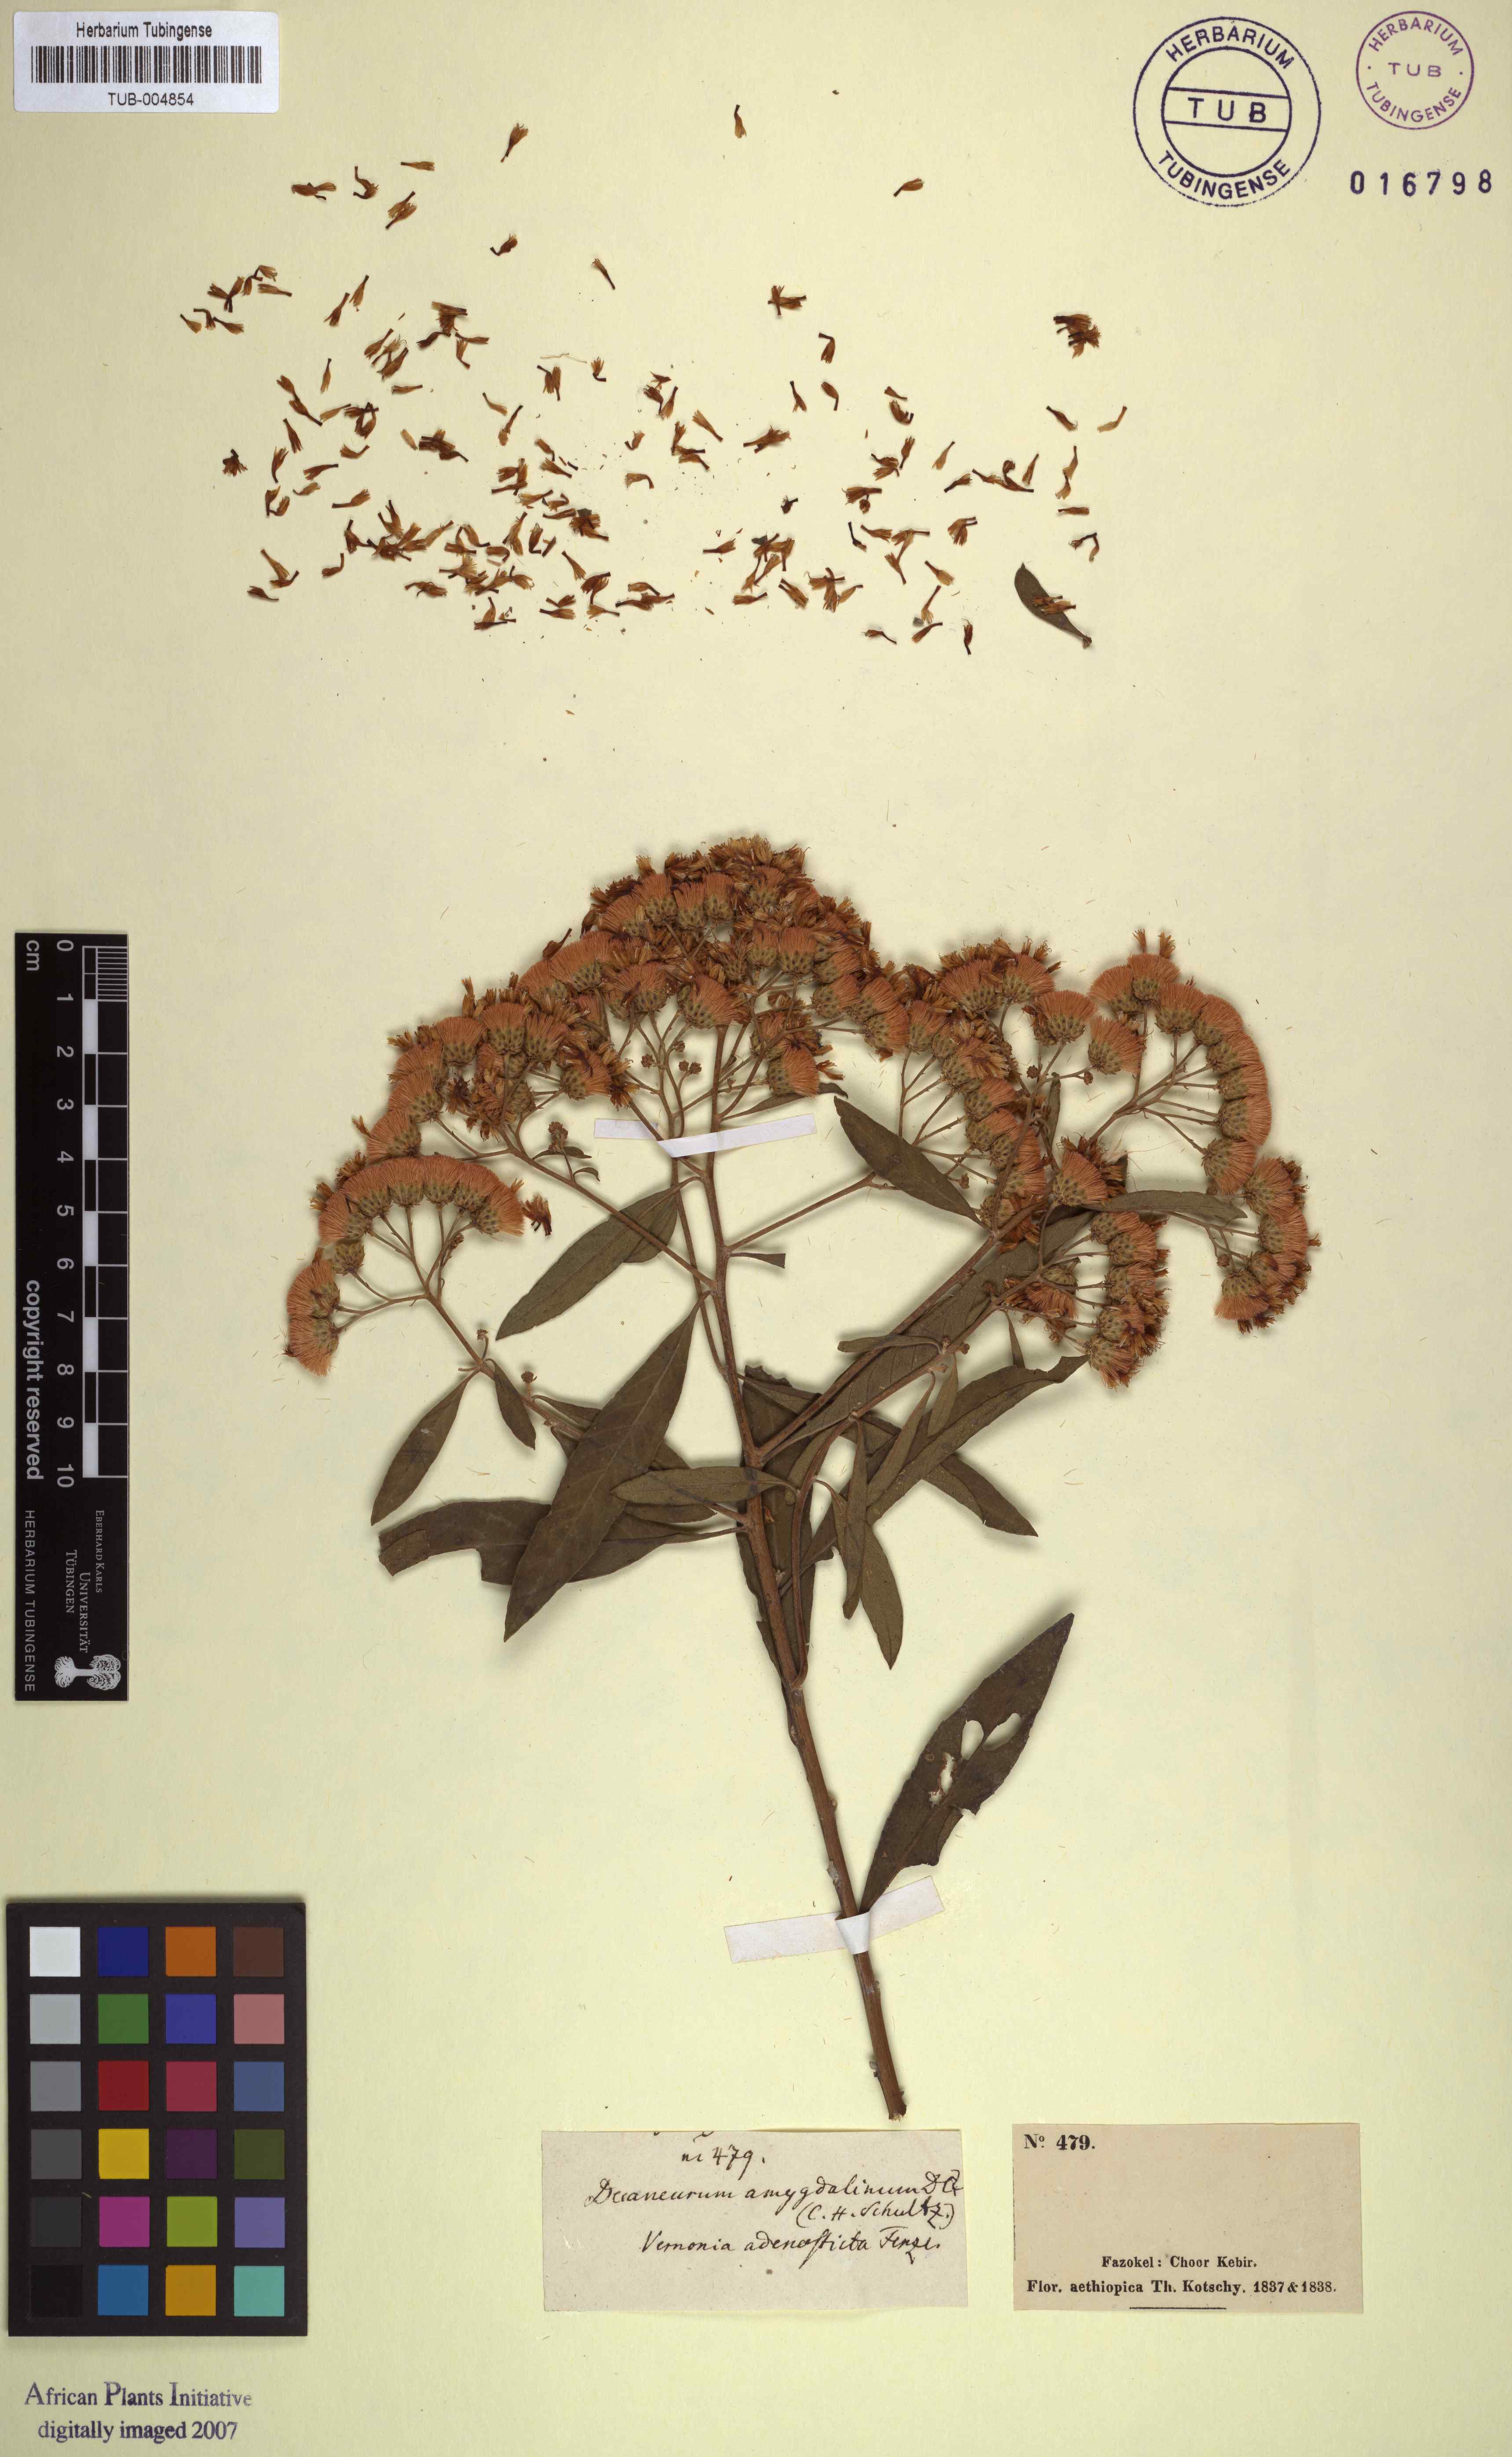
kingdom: Plantae
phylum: Tracheophyta
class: Magnoliopsida
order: Asterales
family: Asteraceae
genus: Gymnanthemum
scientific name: Gymnanthemum amygdalinum
